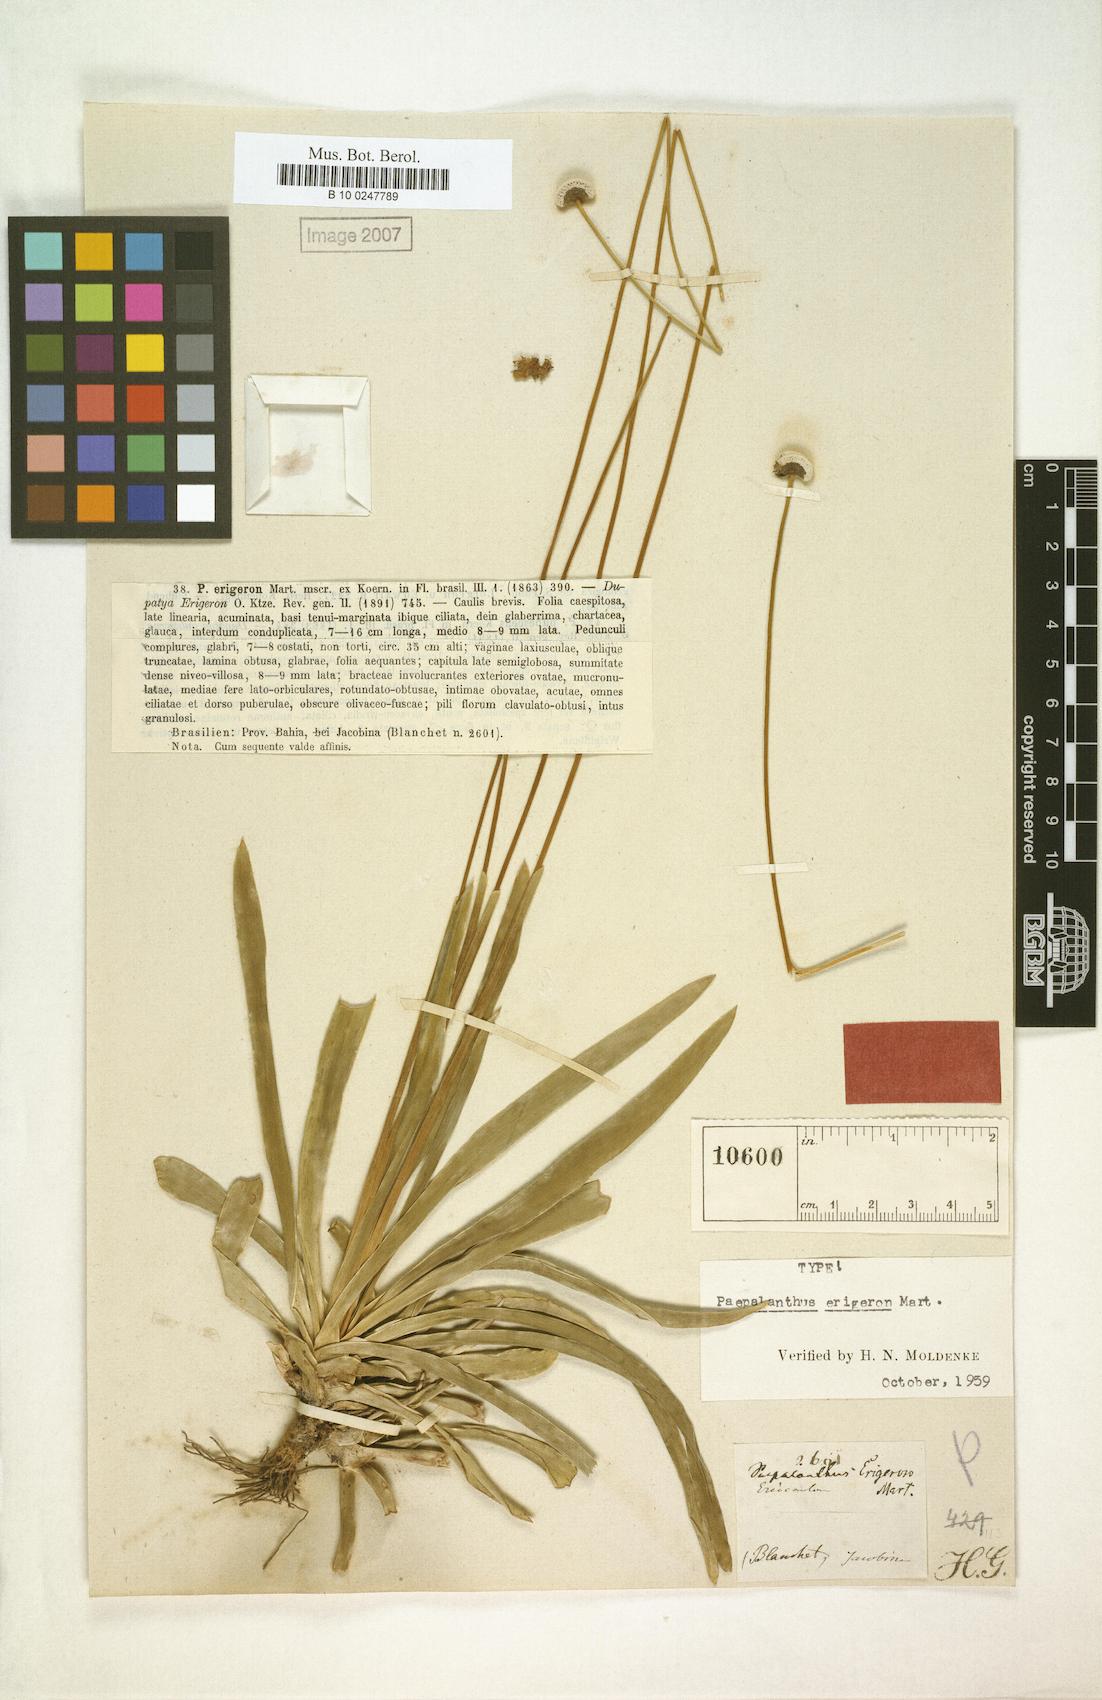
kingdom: Plantae
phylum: Tracheophyta
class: Liliopsida
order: Poales
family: Eriocaulaceae
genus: Paepalanthus
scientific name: Paepalanthus erigeron
